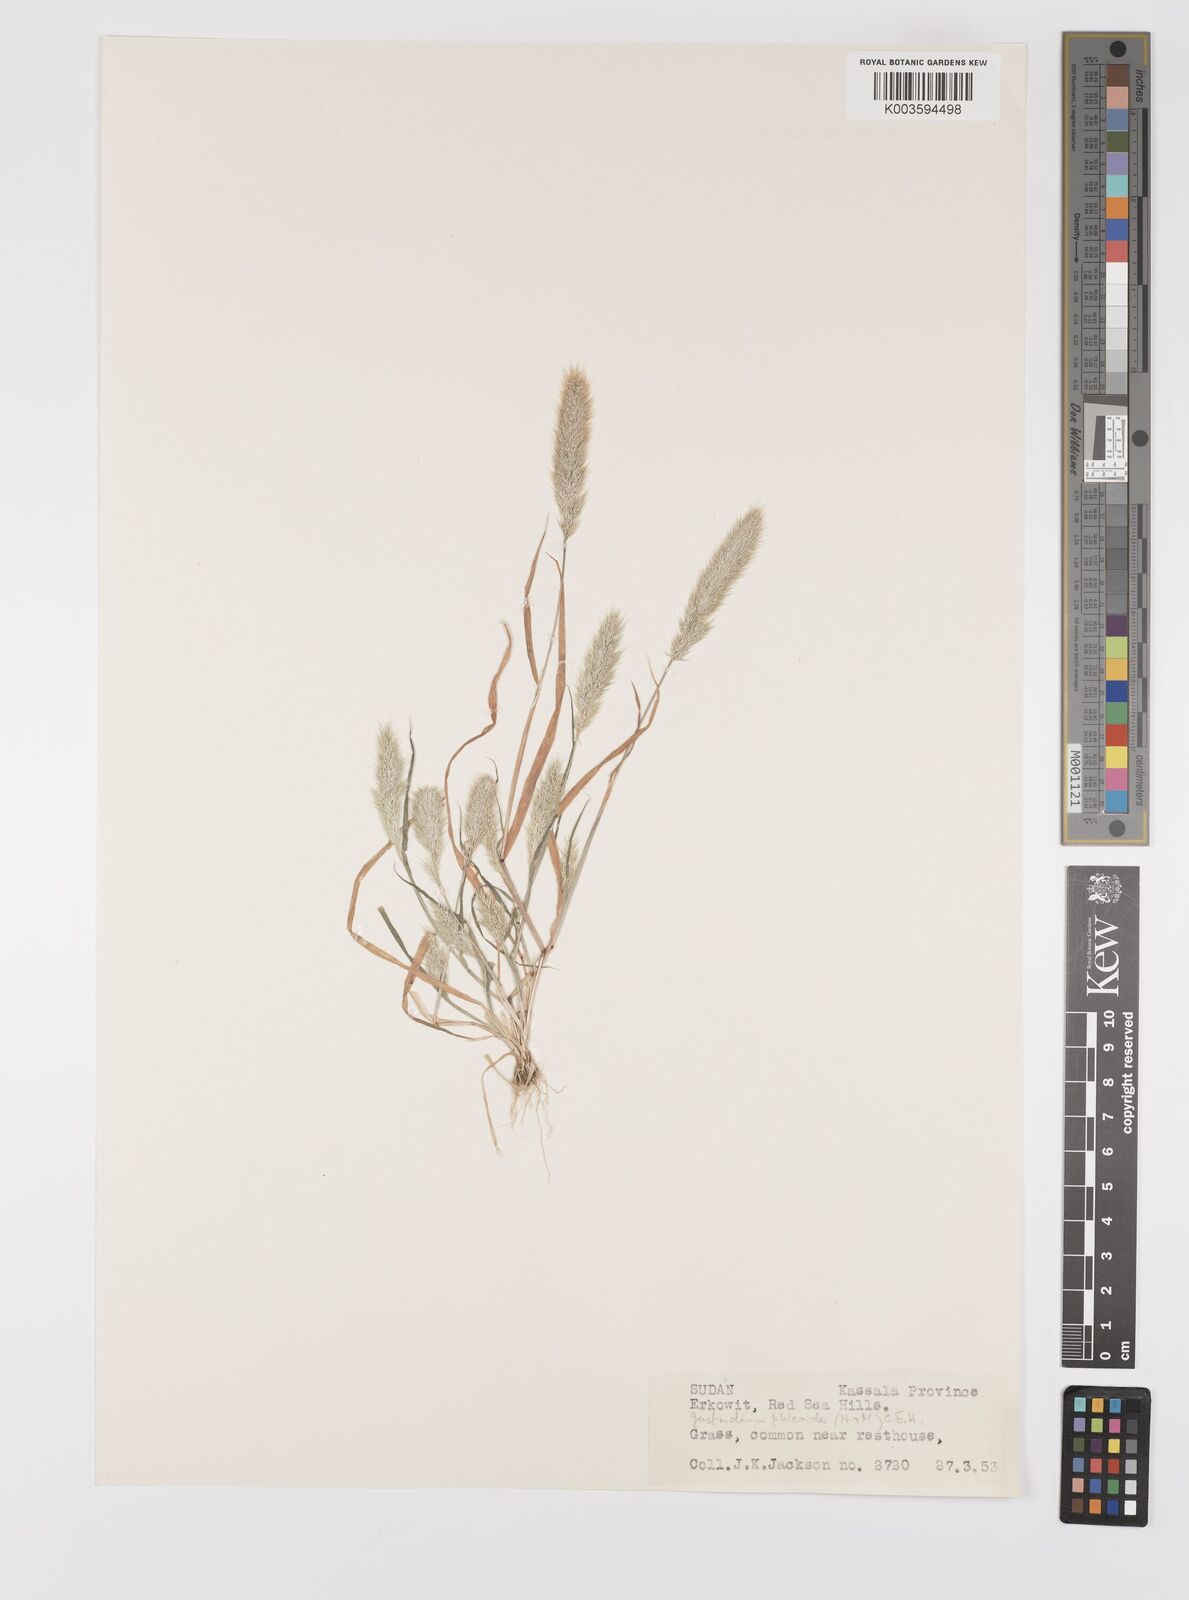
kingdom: Plantae
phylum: Tracheophyta
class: Liliopsida
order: Poales
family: Poaceae
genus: Gastridium
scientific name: Gastridium phleoides
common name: Nit grass
